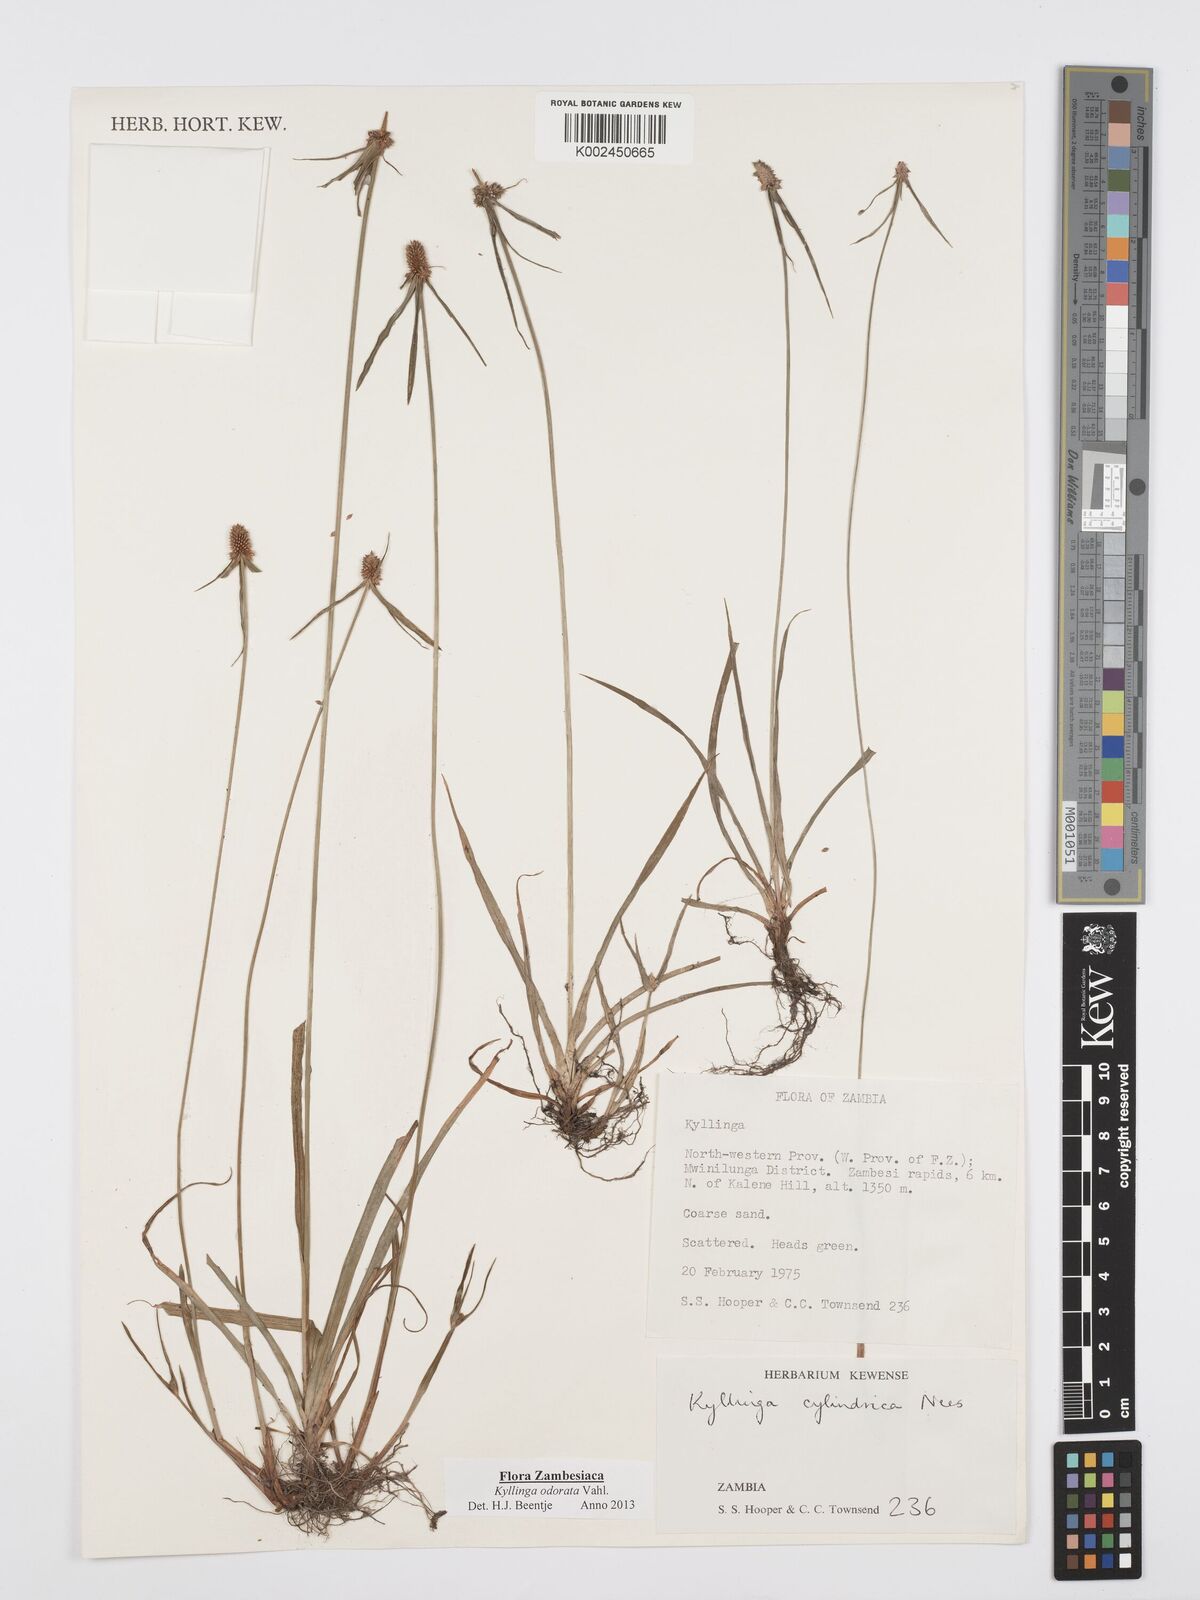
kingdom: Plantae
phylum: Tracheophyta
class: Liliopsida
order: Poales
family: Cyperaceae
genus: Cyperus
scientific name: Cyperus
